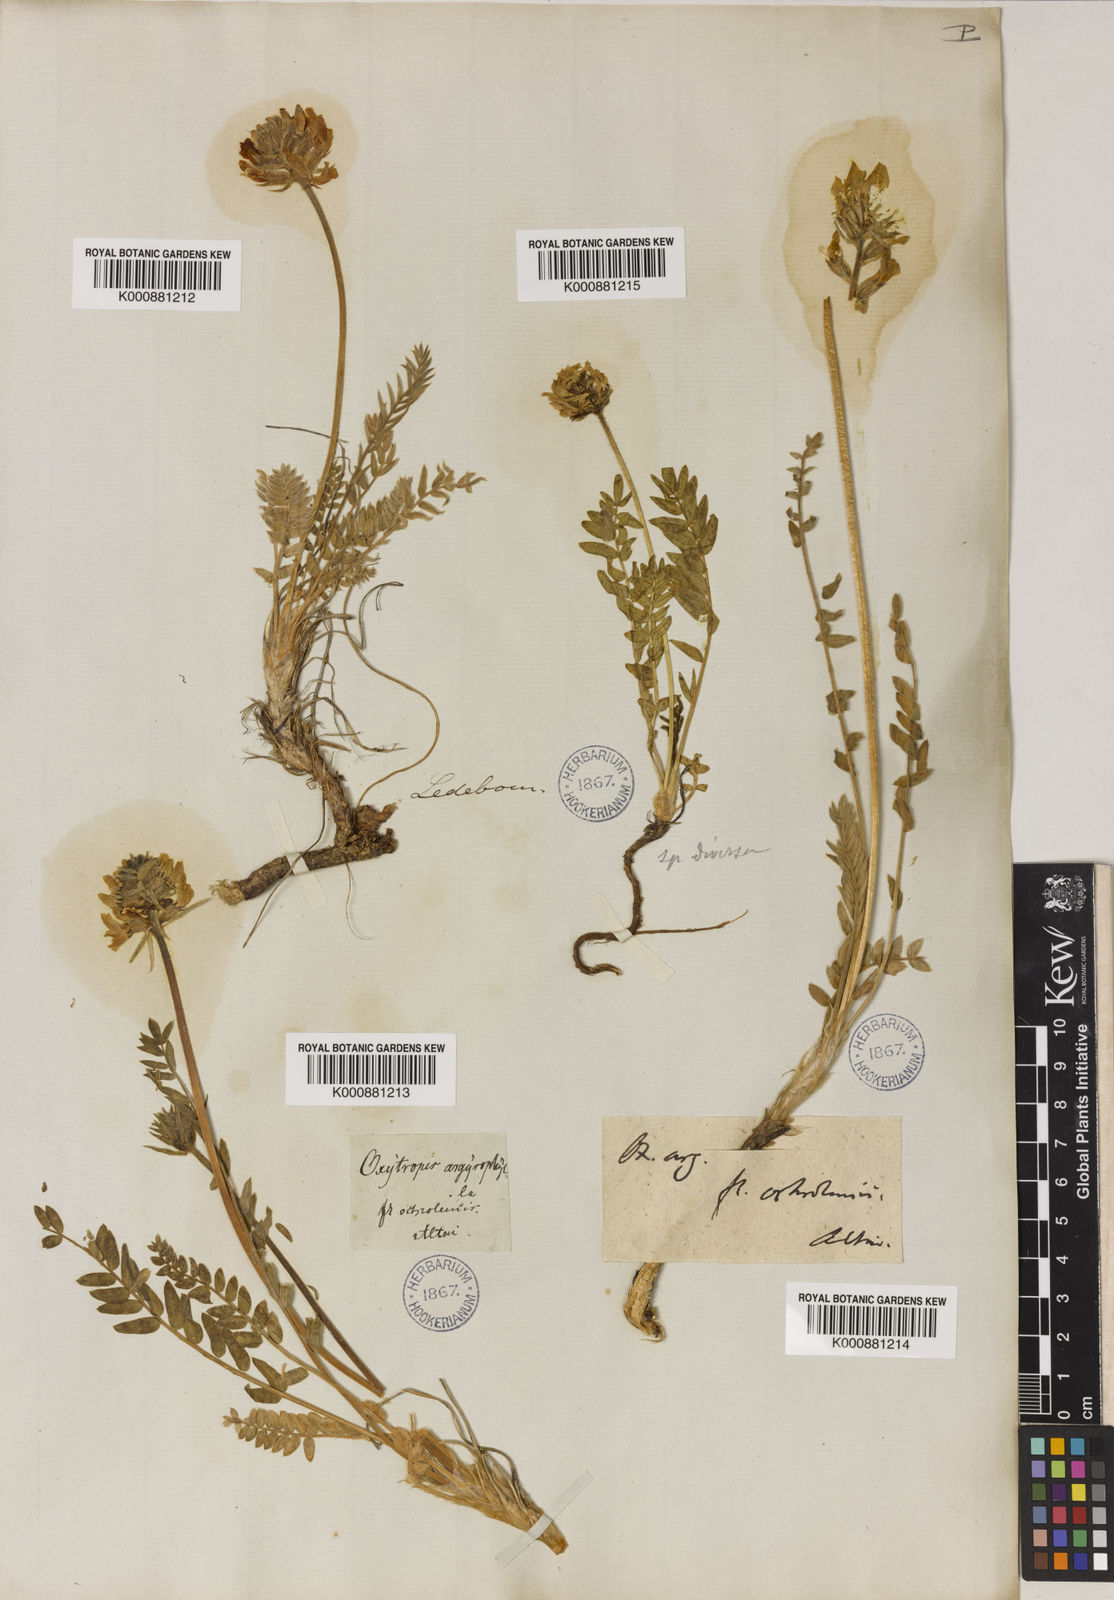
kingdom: Plantae
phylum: Tracheophyta
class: Magnoliopsida
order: Fabales
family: Fabaceae
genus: Oxytropis
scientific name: Oxytropis sulphurea
